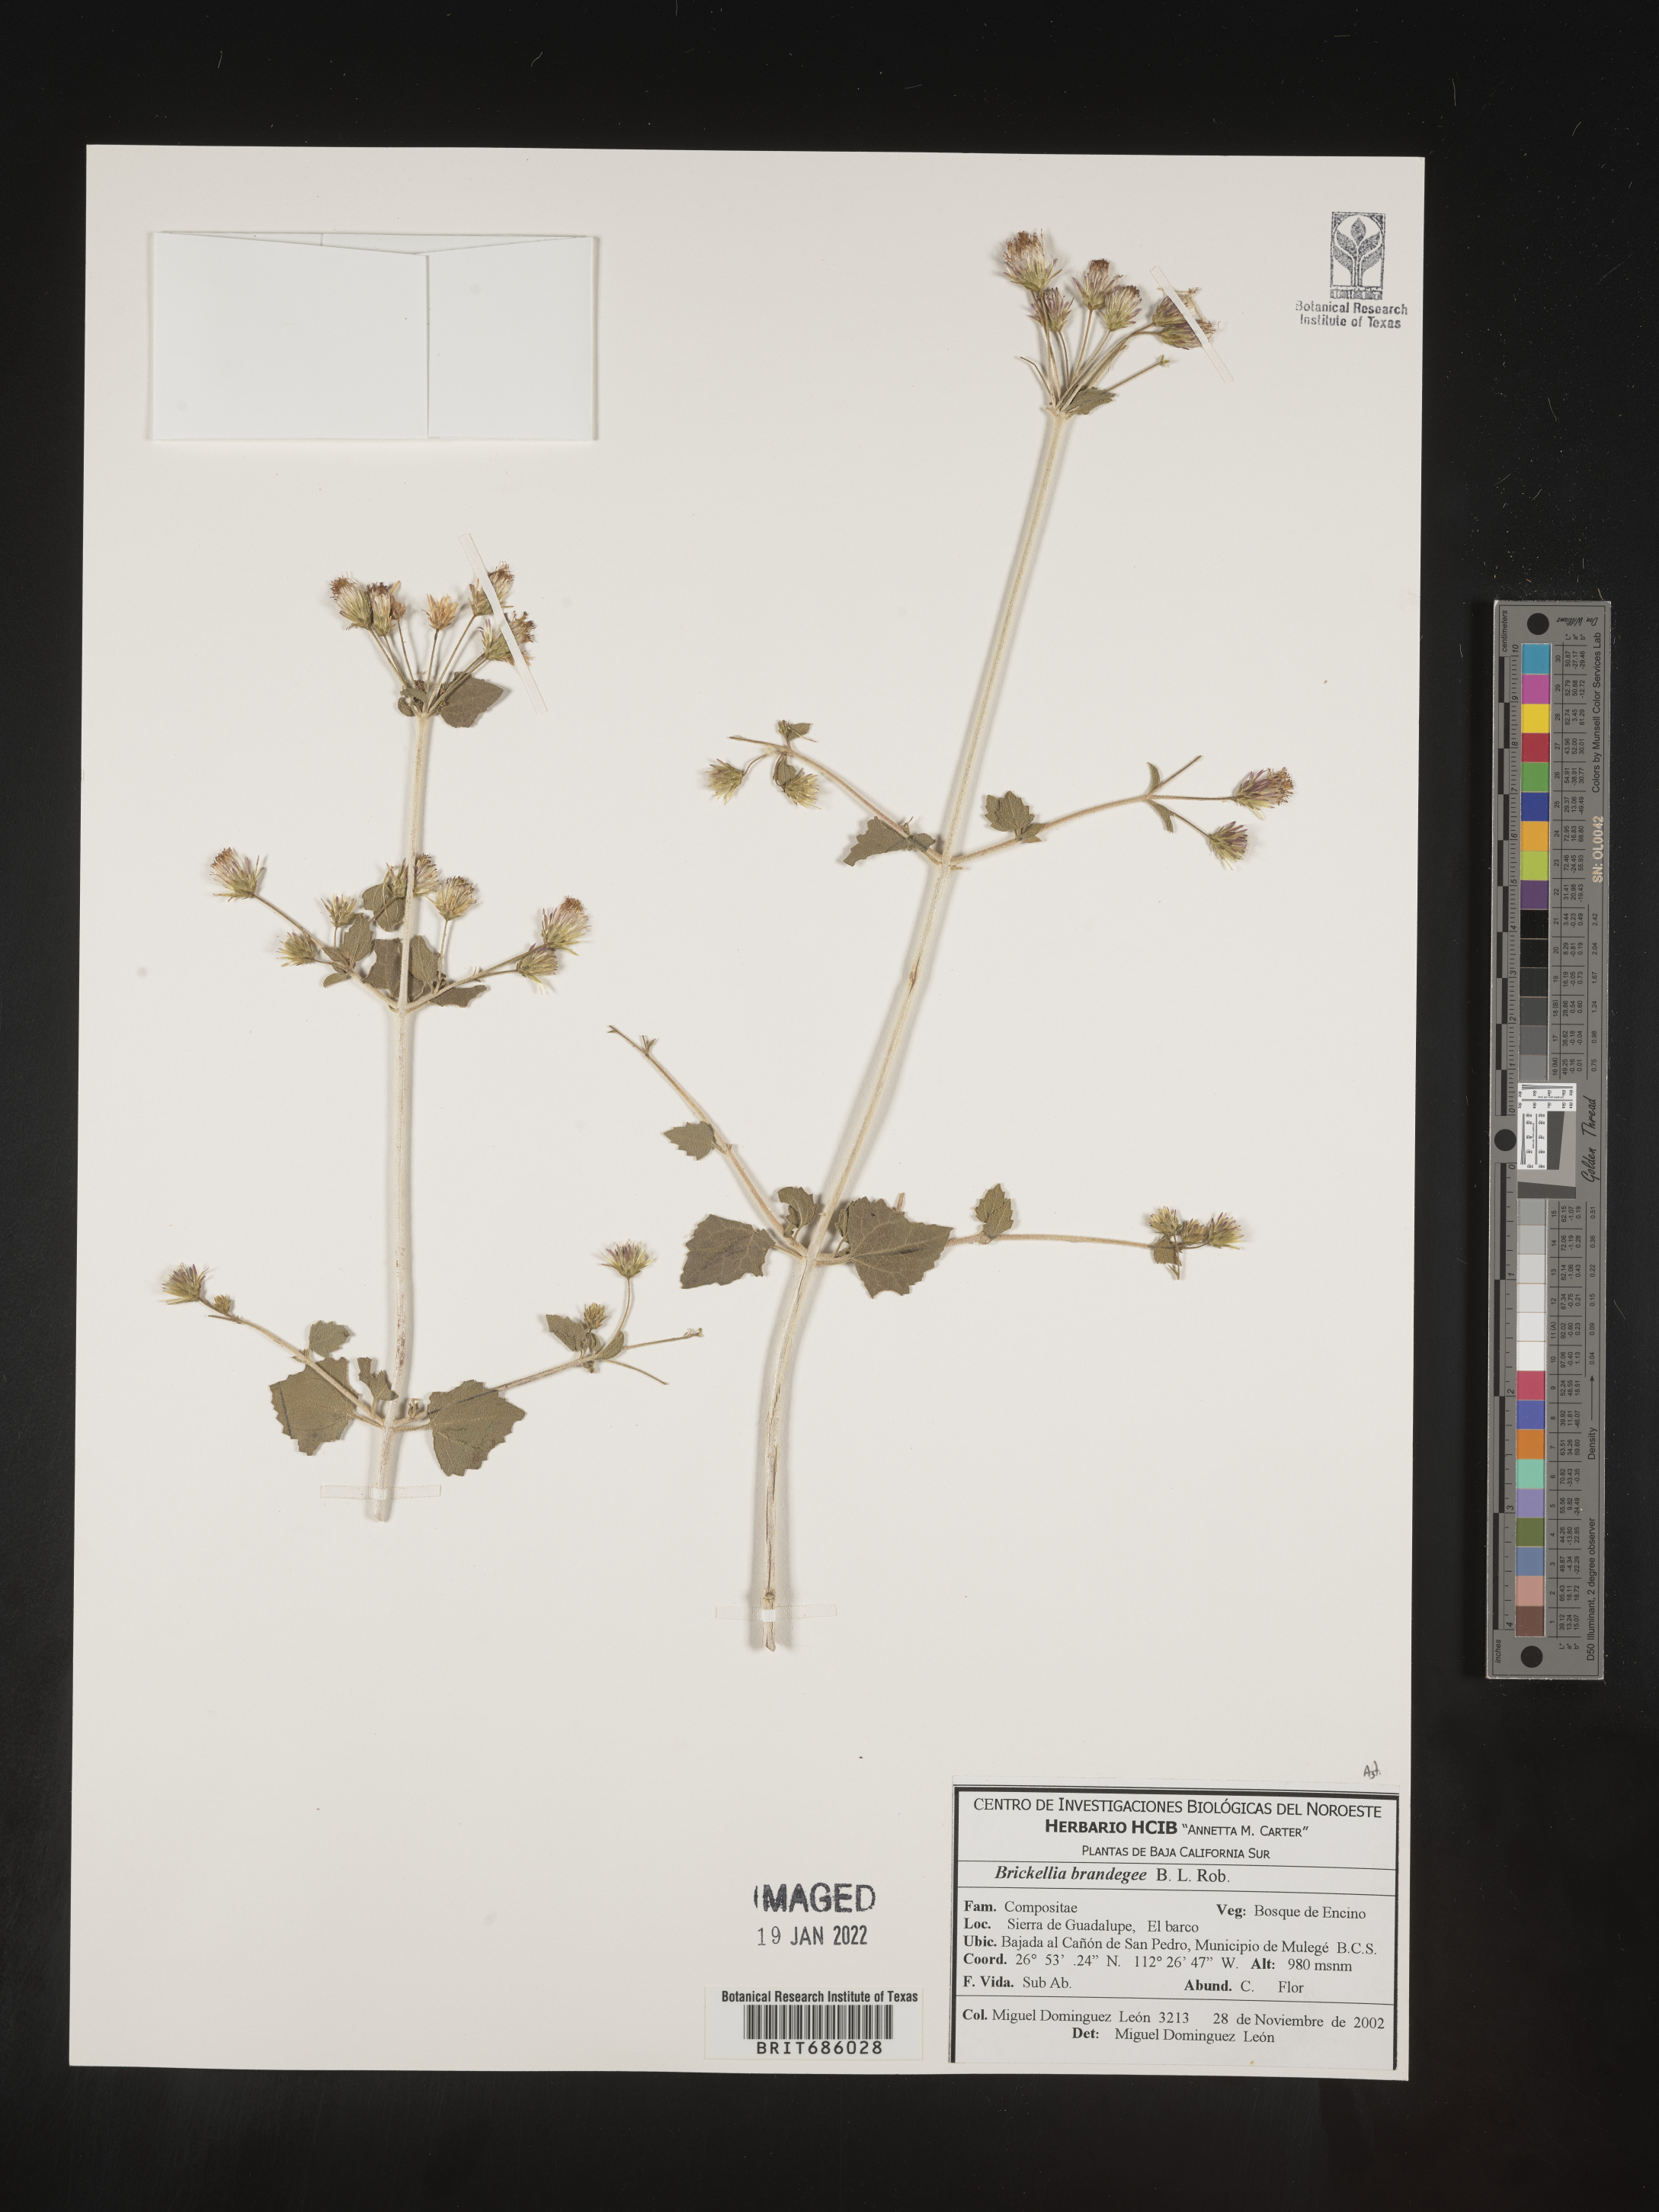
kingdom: Plantae
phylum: Tracheophyta
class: Magnoliopsida
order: Asterales
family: Asteraceae
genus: Brickellia
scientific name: Brickellia
